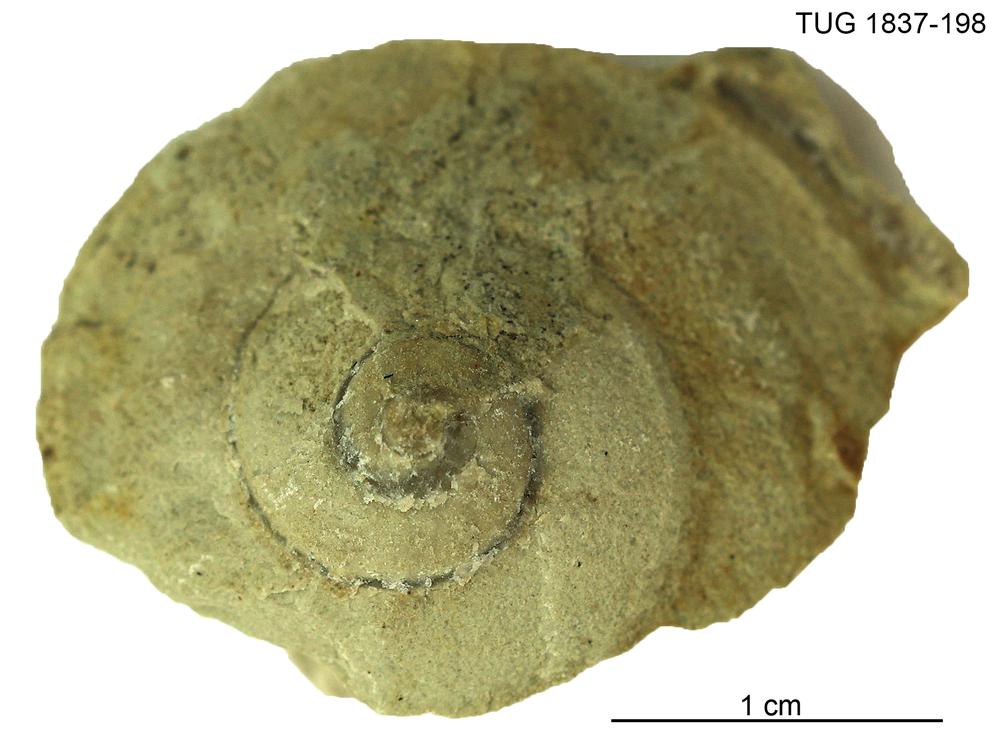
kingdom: Animalia
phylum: Mollusca
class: Gastropoda
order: Pleurotomariida
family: Eotomariidae
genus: Eotomaria
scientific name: Eotomaria
